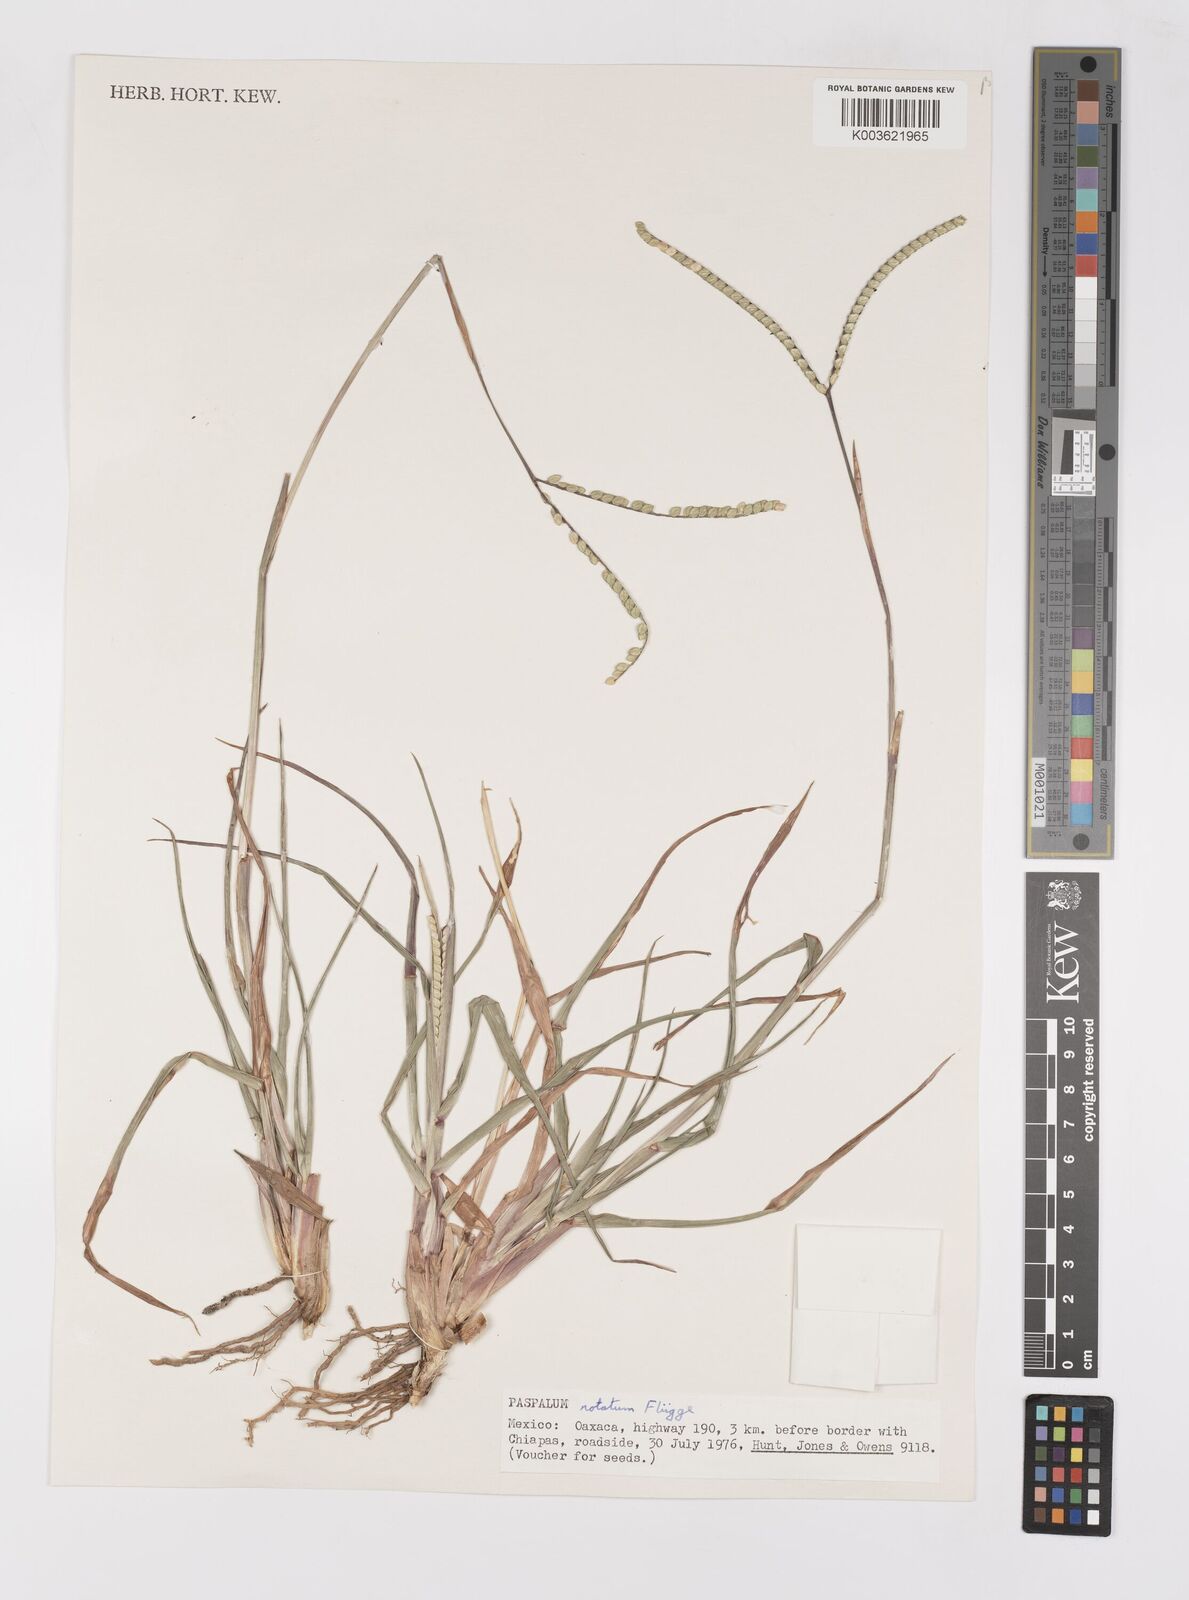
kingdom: Plantae
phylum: Tracheophyta
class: Liliopsida
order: Poales
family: Poaceae
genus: Paspalum
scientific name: Paspalum notatum
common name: Bahiagrass
